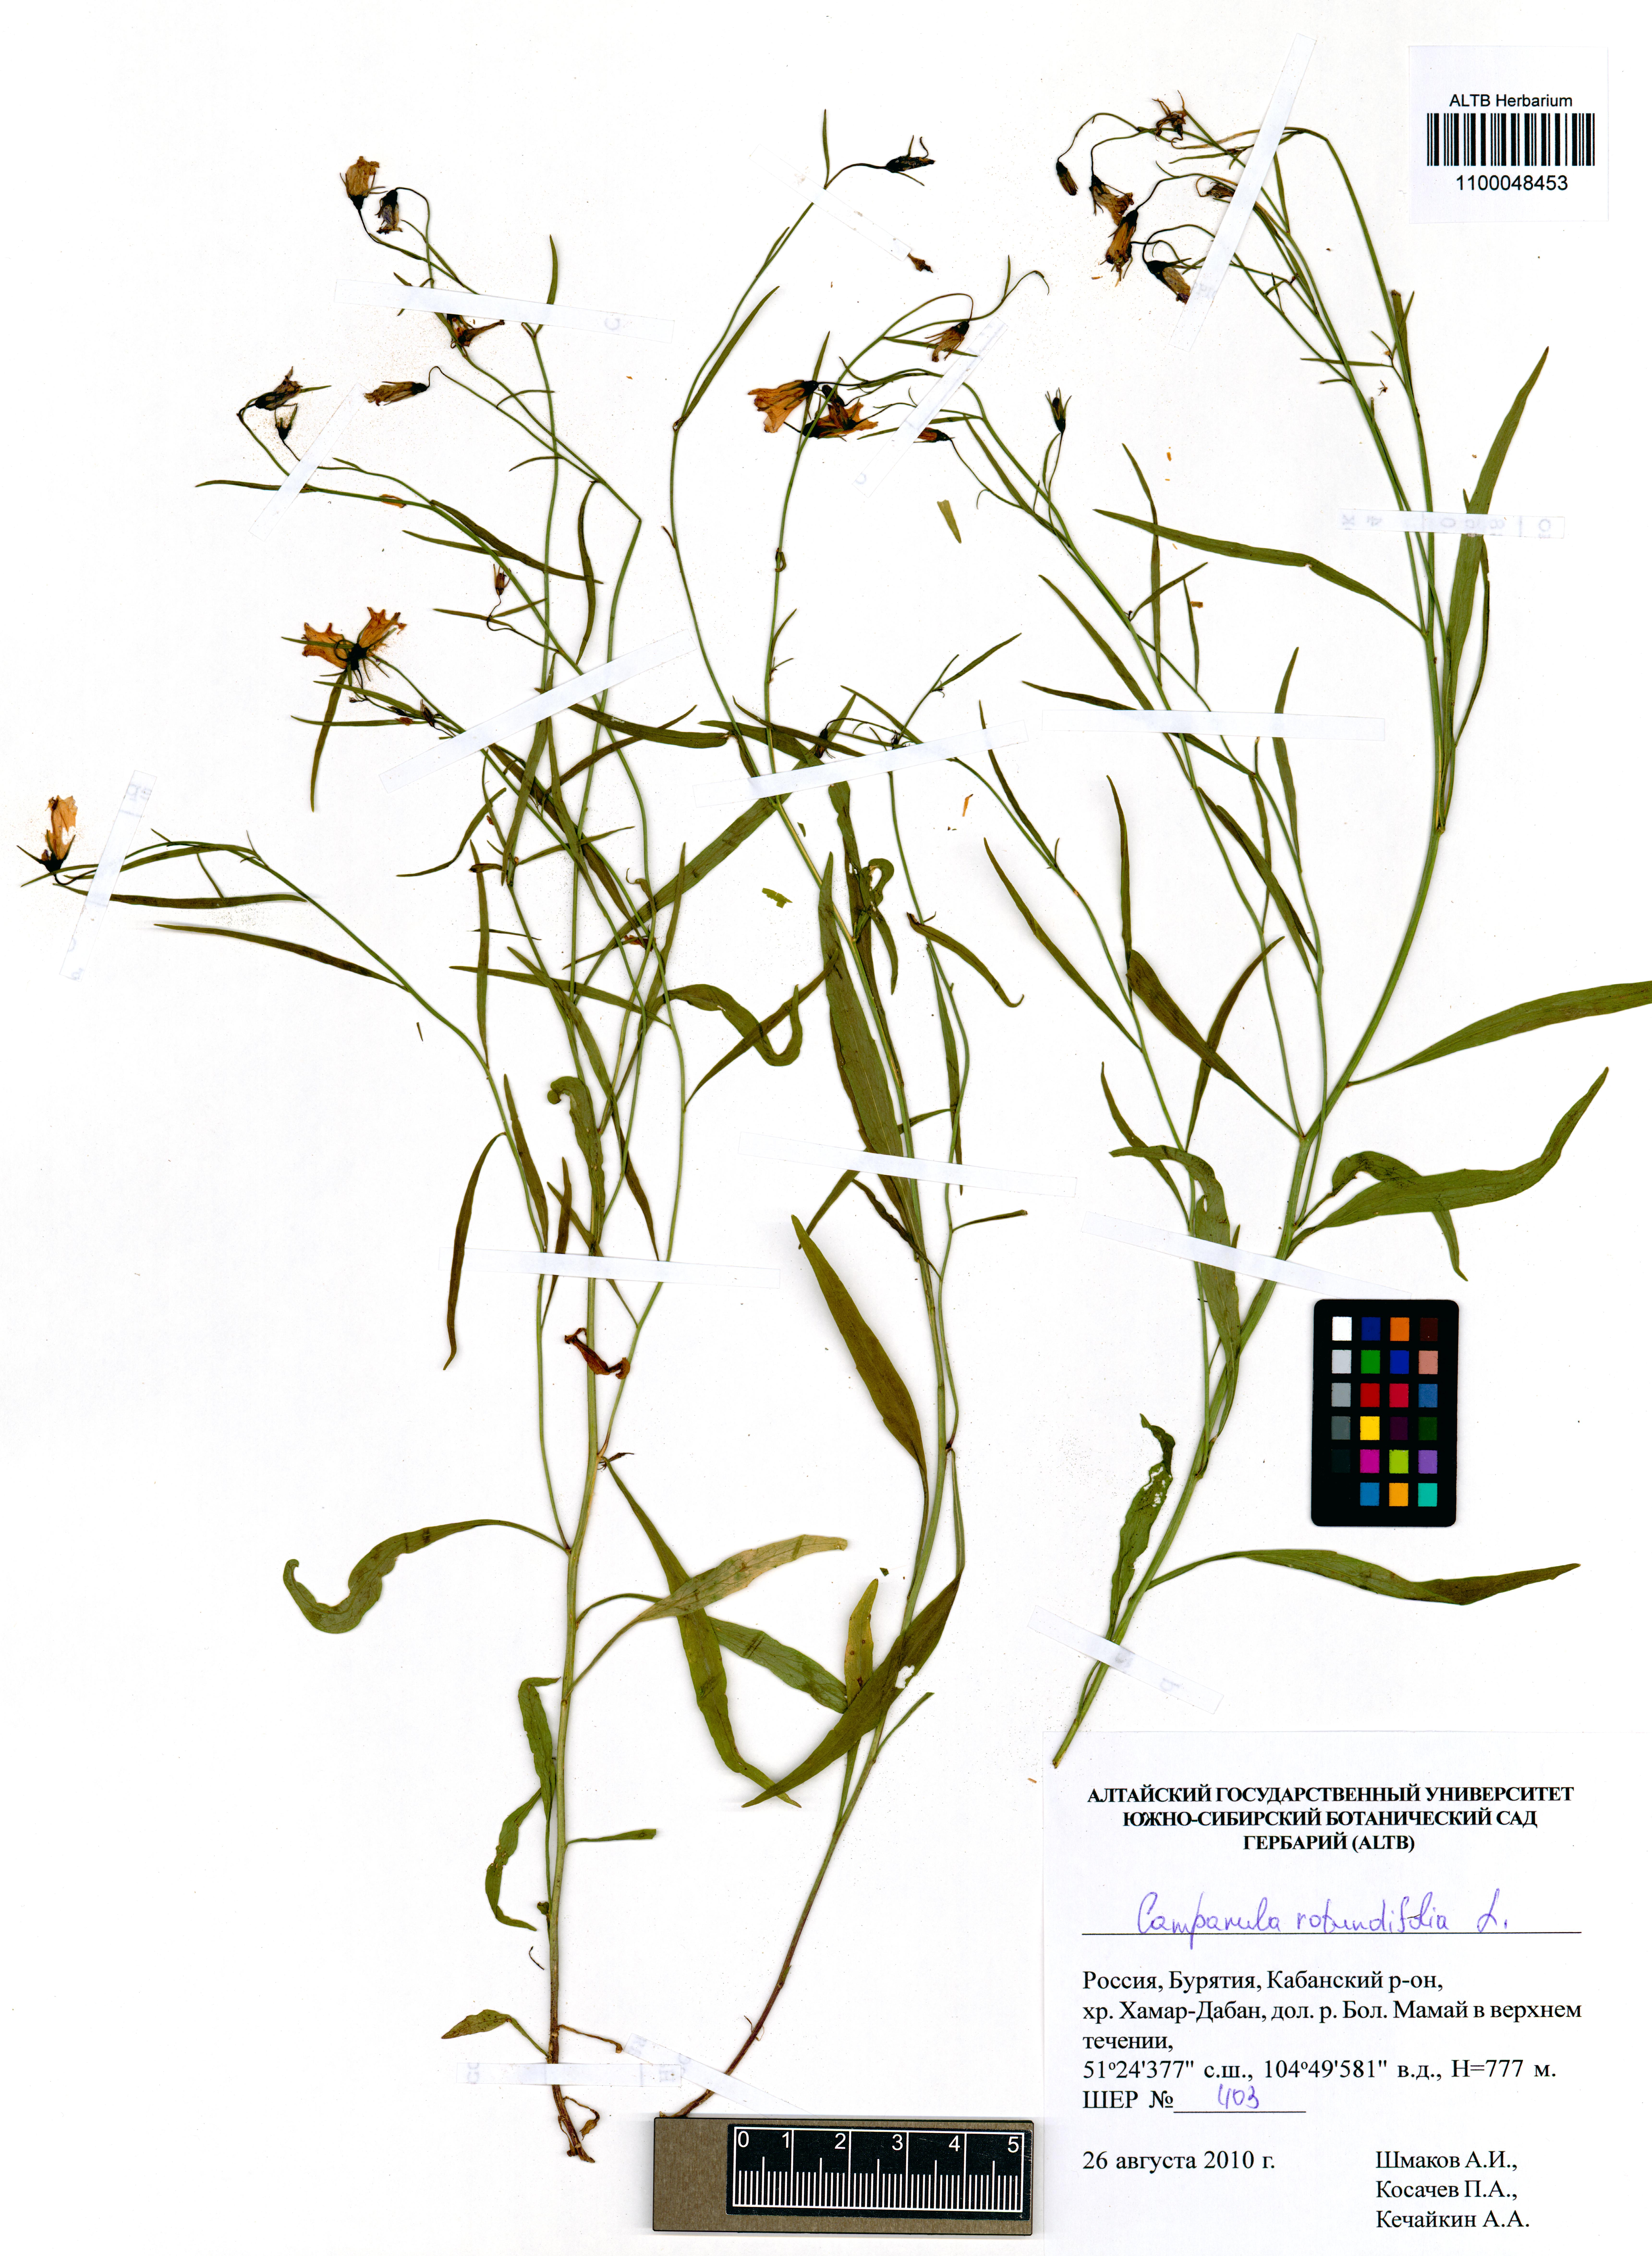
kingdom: Plantae
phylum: Tracheophyta
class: Magnoliopsida
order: Asterales
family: Campanulaceae
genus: Campanula
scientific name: Campanula rotundifolia
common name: Harebell
